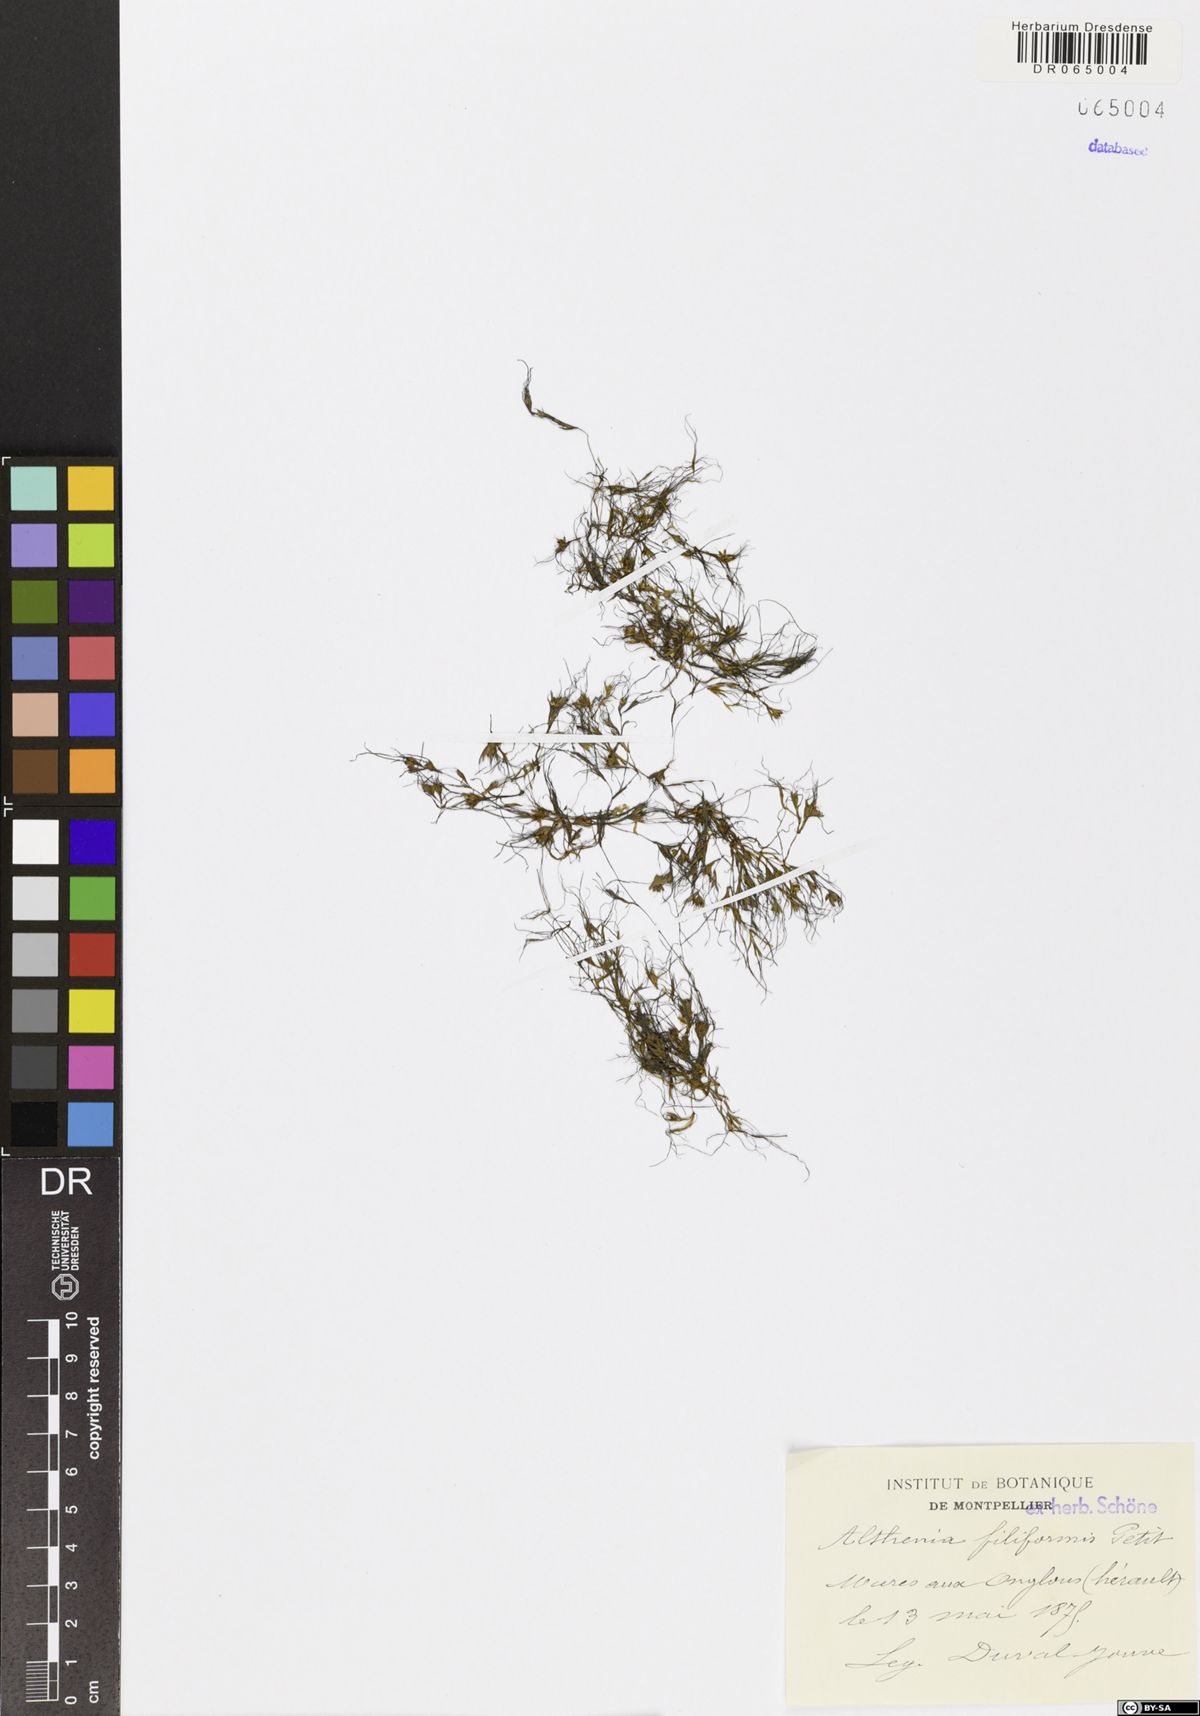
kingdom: Plantae
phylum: Tracheophyta
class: Liliopsida
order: Alismatales
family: Potamogetonaceae
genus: Althenia
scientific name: Althenia filiformis
